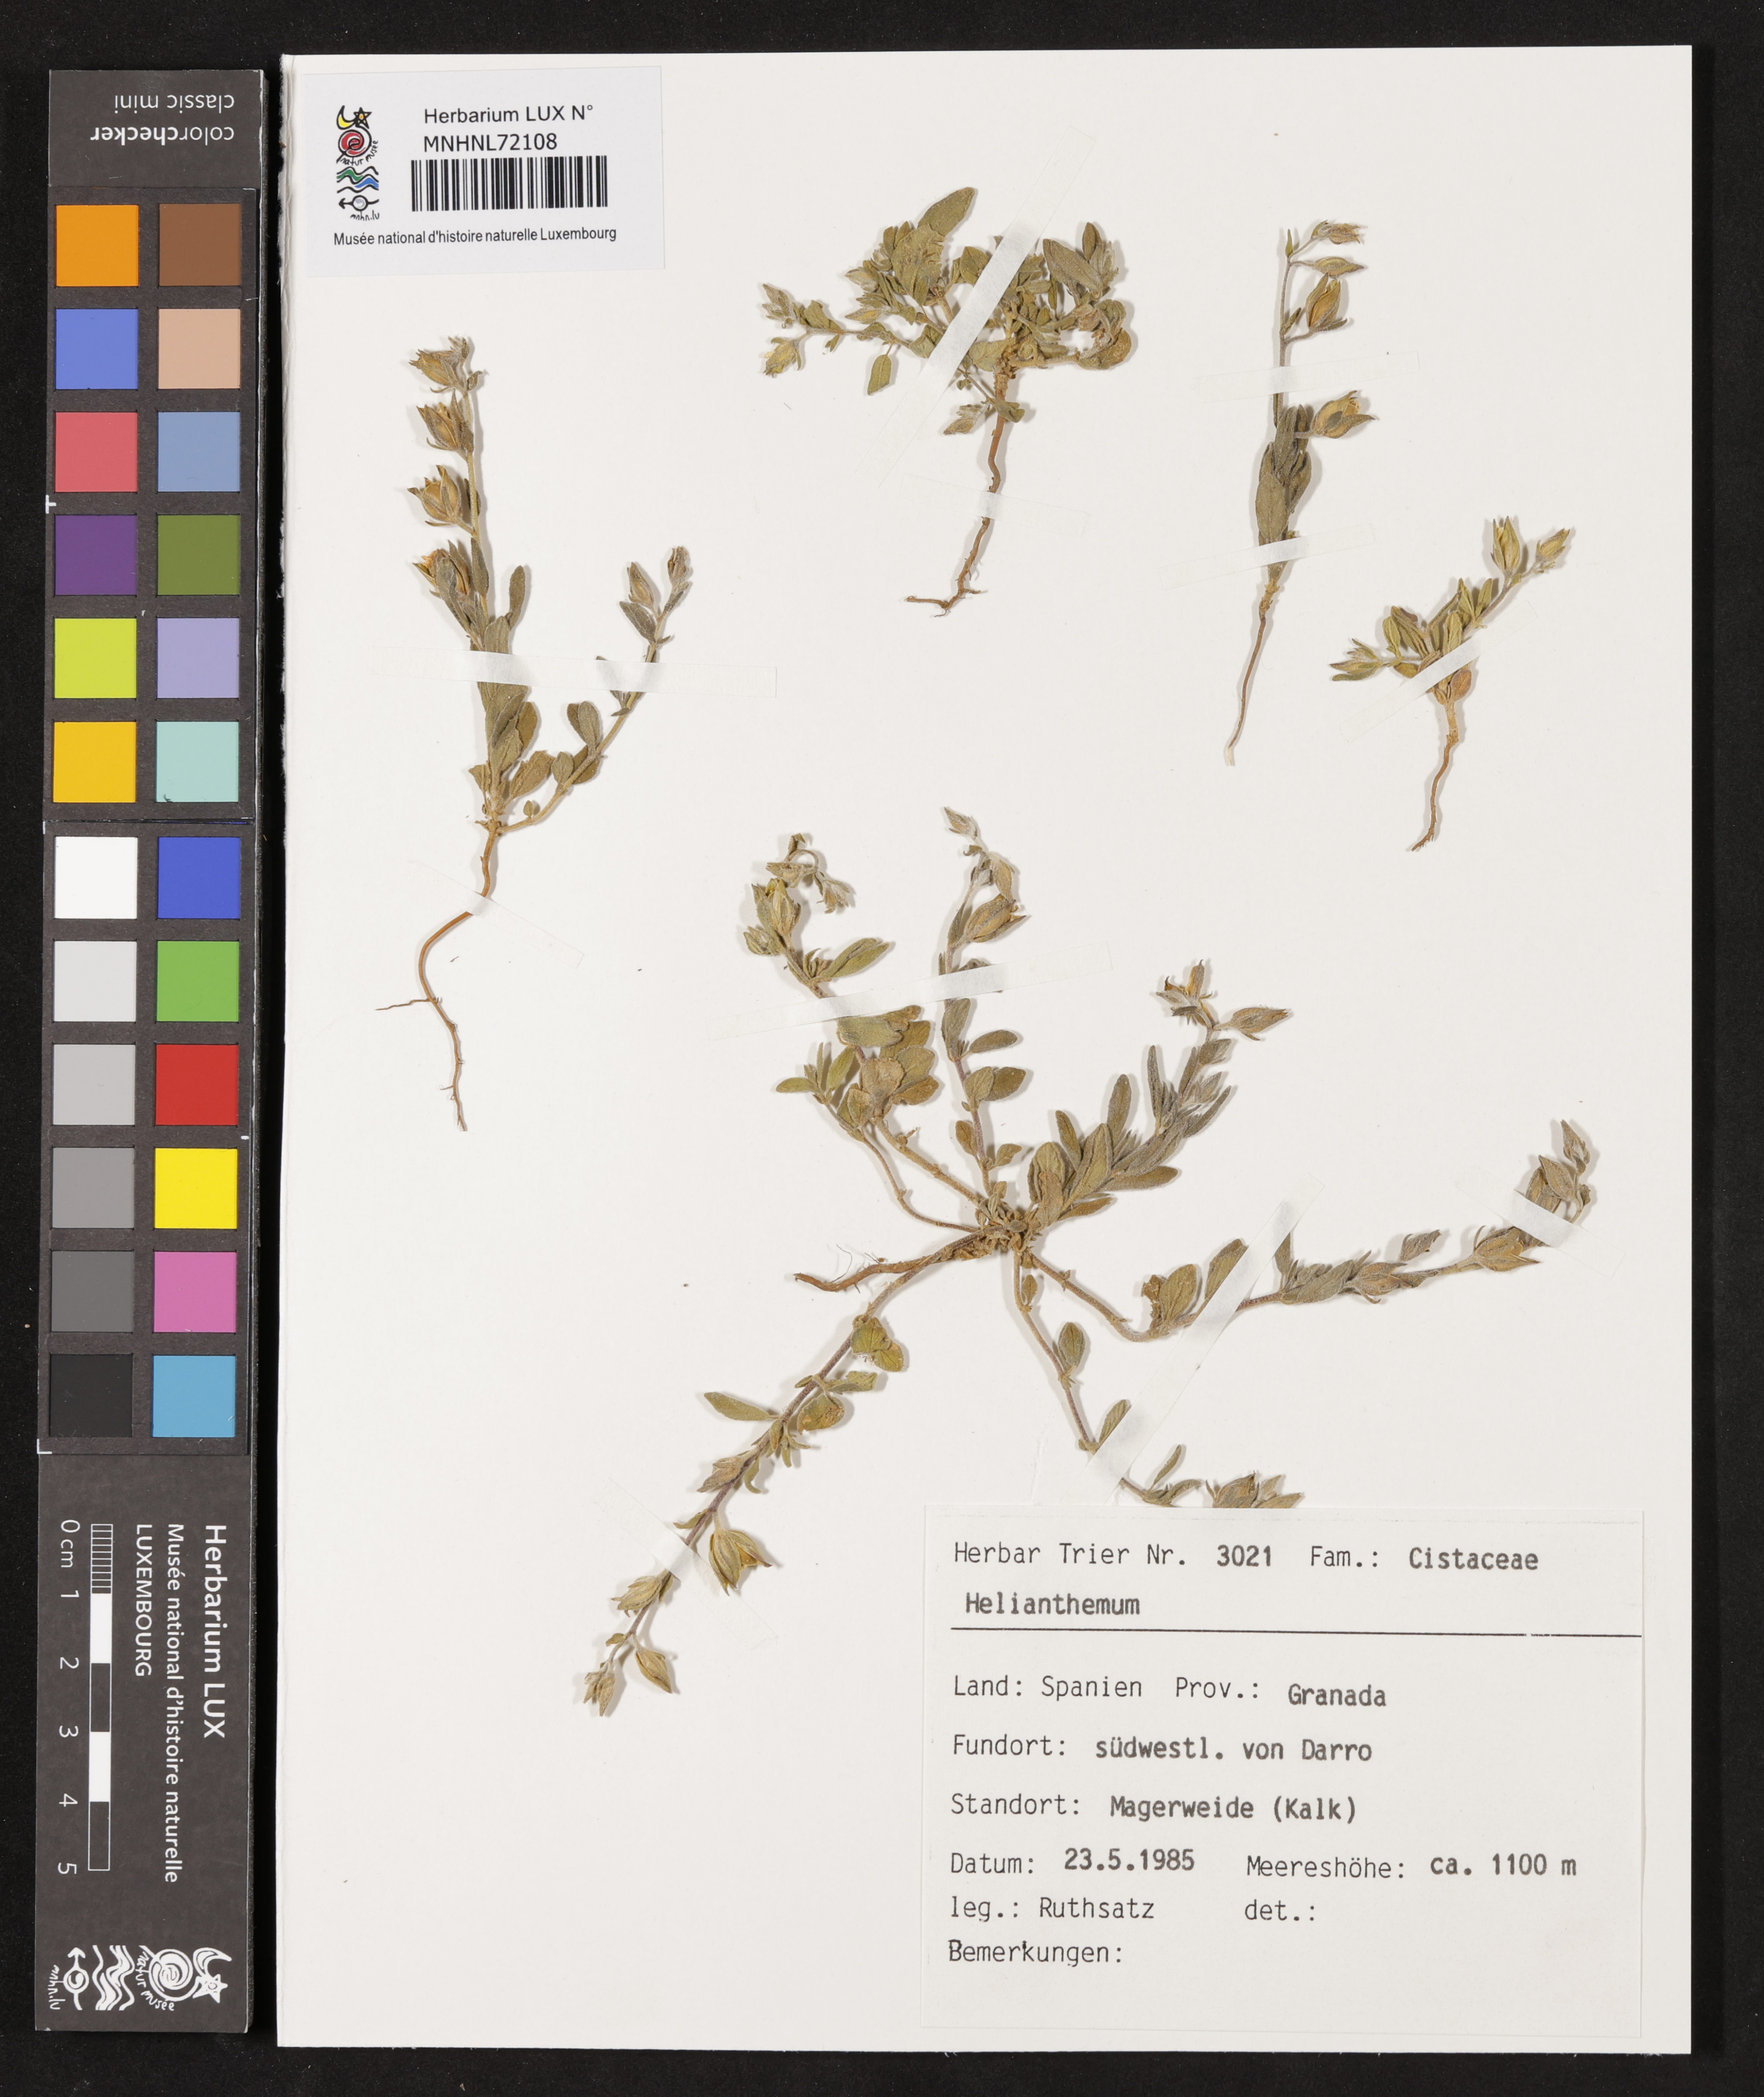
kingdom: Plantae
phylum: Tracheophyta
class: Magnoliopsida
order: Malvales
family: Cistaceae
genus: Helianthemum
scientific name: Helianthemum
